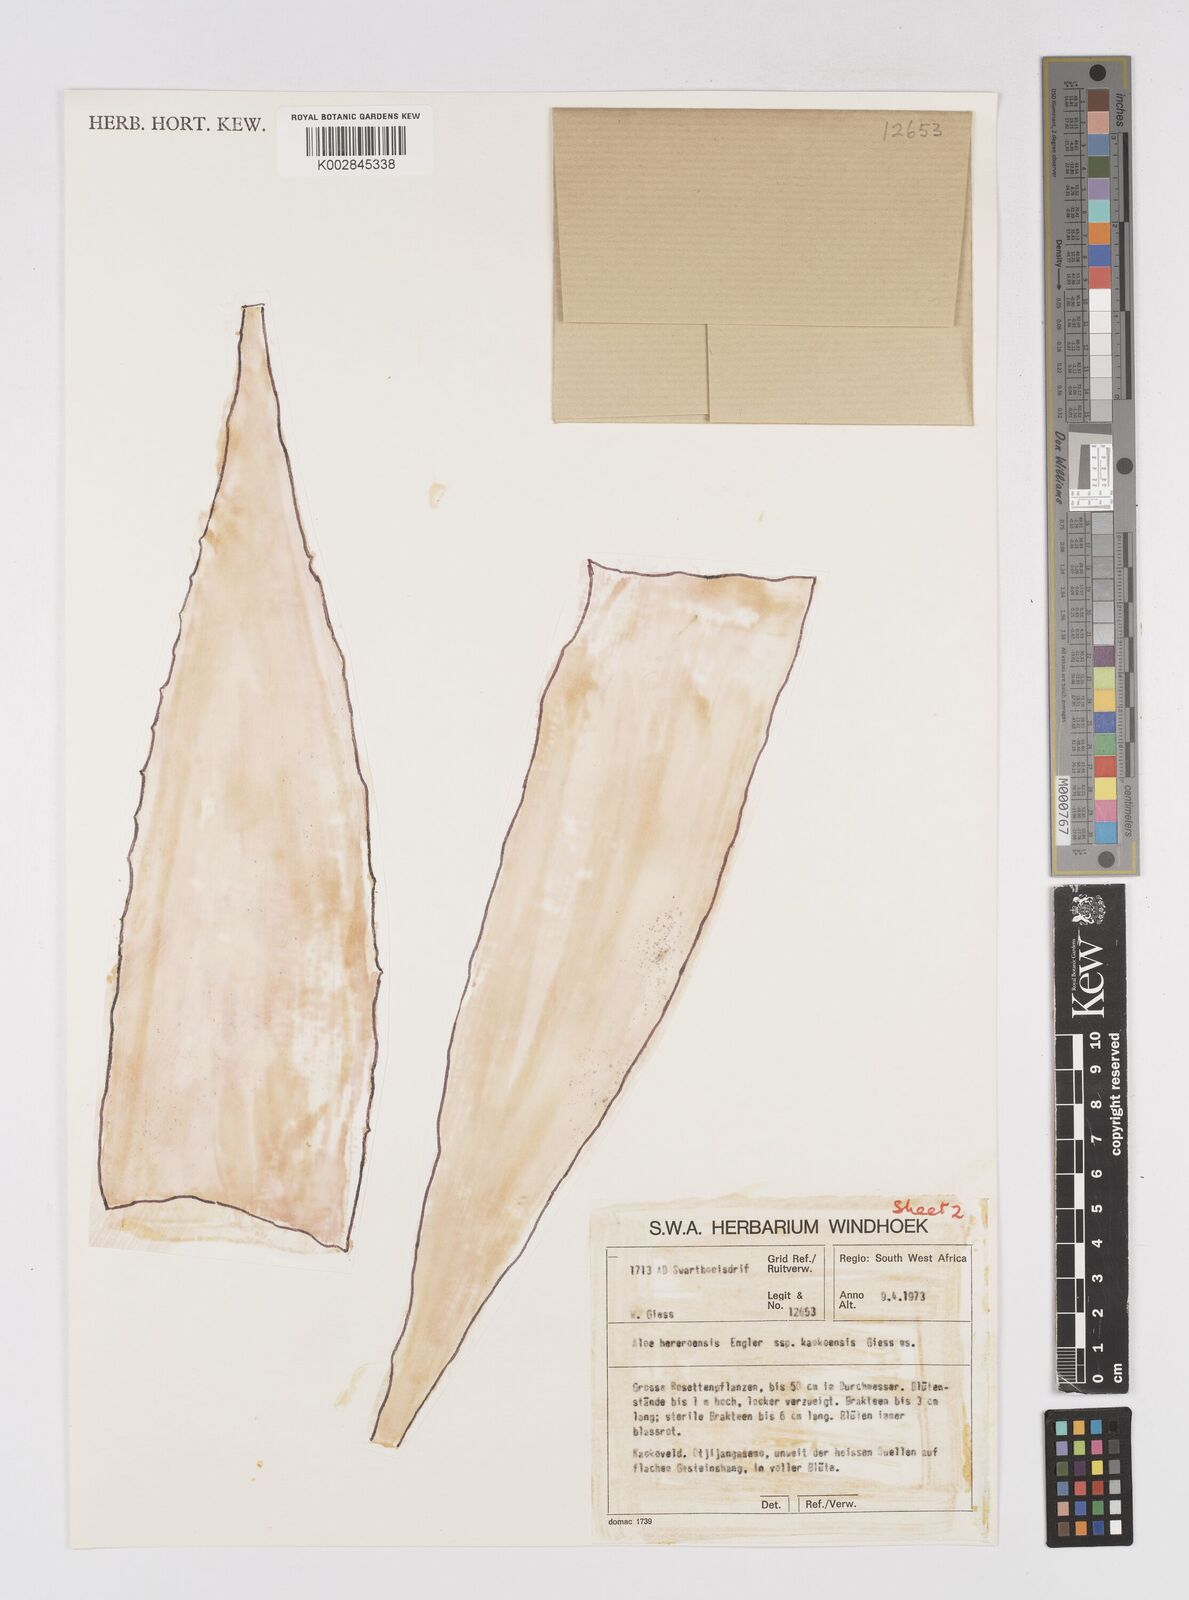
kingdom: Plantae
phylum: Tracheophyta
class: Liliopsida
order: Asparagales
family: Asphodelaceae
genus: Aloe
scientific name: Aloe hereroensis
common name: Herero aloe
